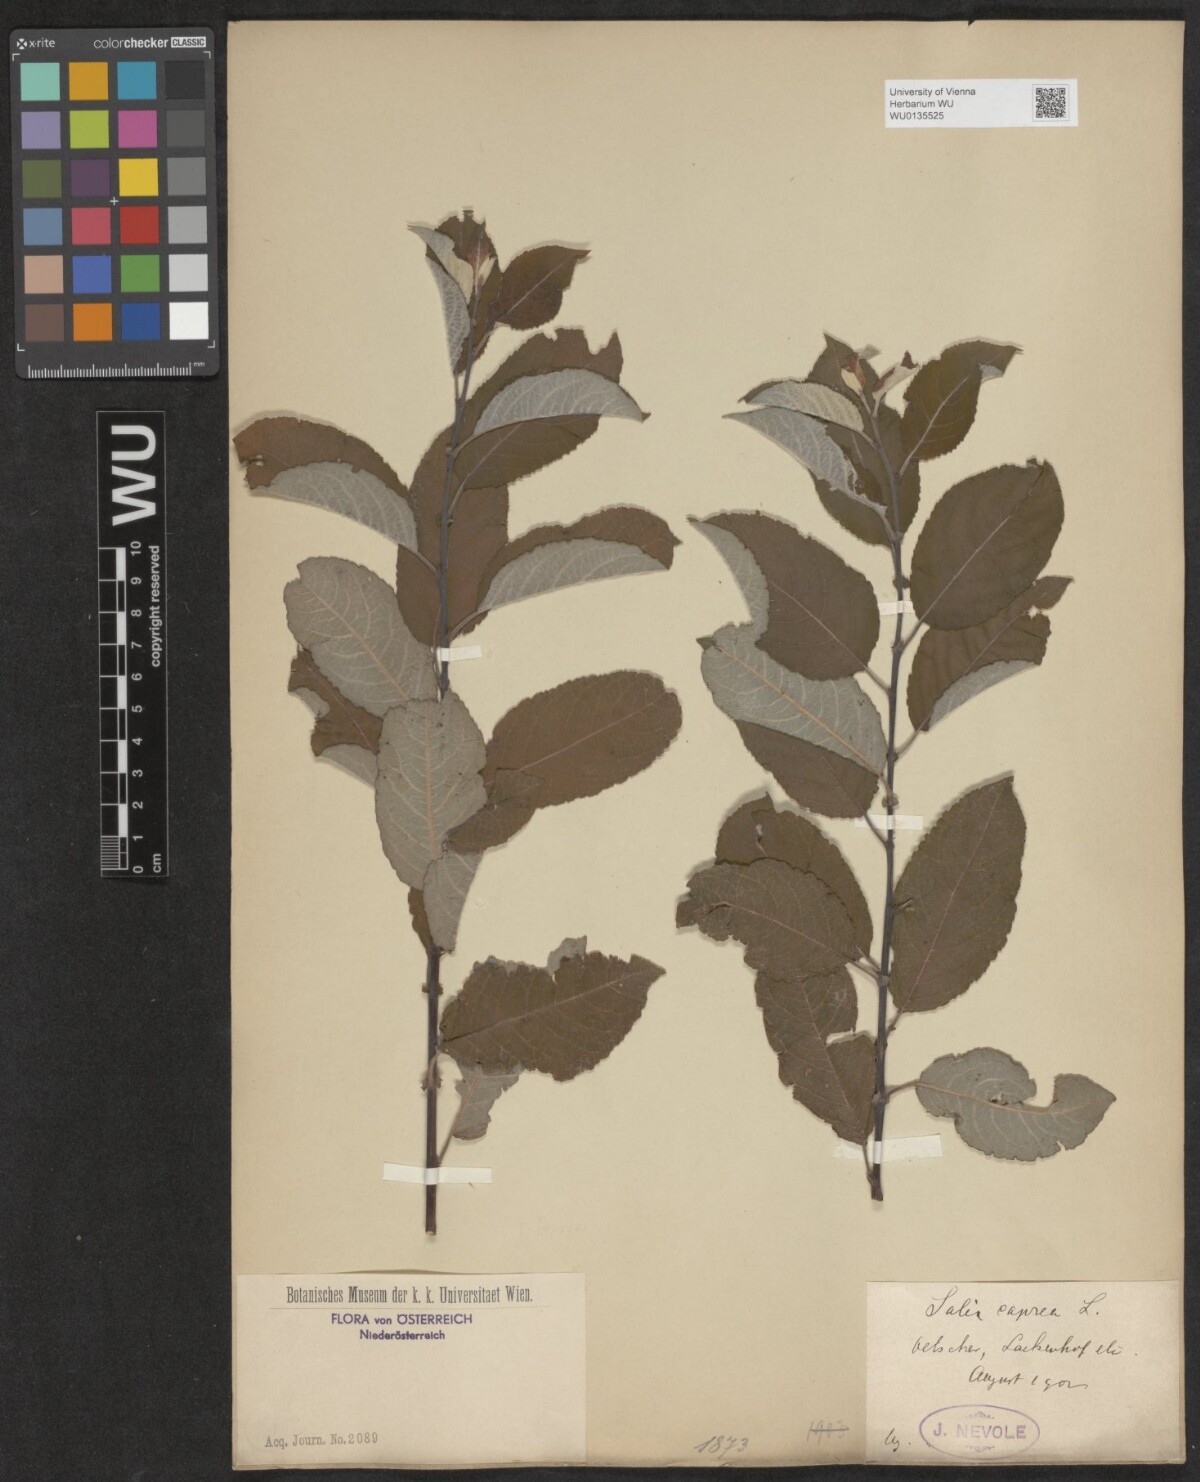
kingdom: Plantae
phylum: Tracheophyta
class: Magnoliopsida
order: Malpighiales
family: Salicaceae
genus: Salix
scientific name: Salix caprea
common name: Goat willow
